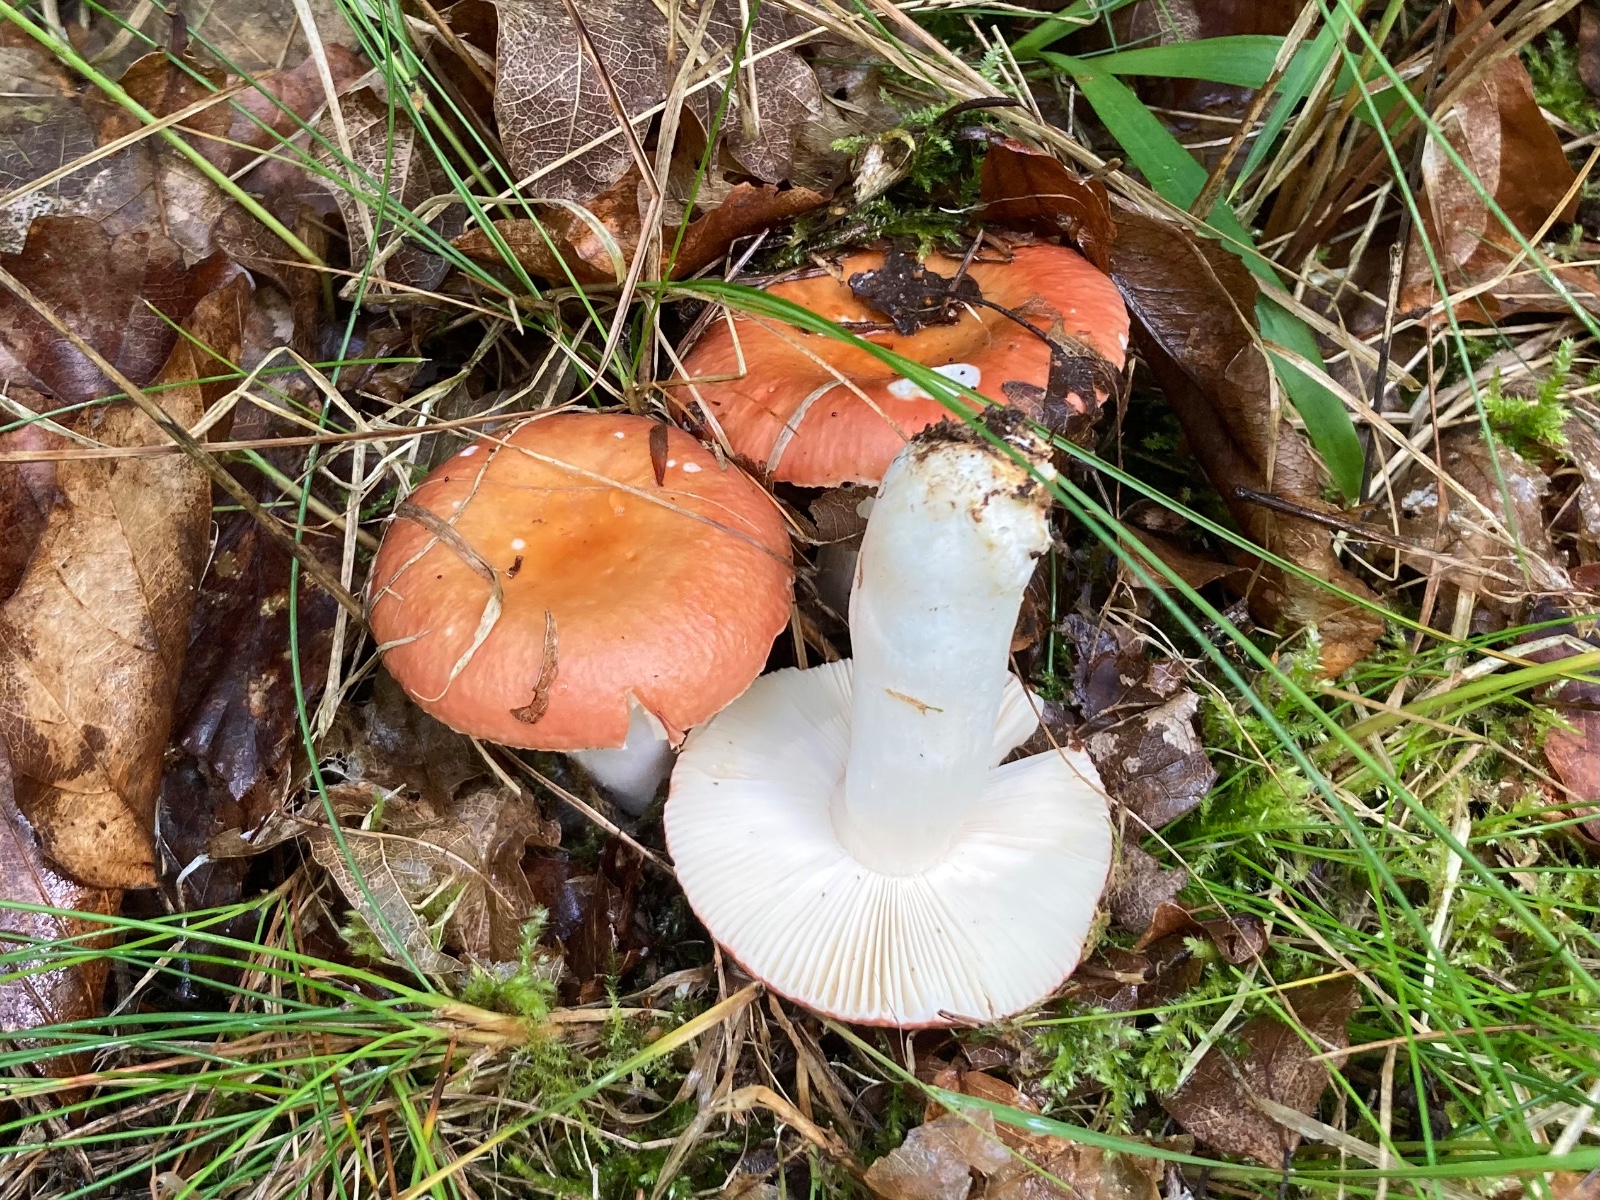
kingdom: Fungi
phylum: Basidiomycota
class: Agaricomycetes
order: Russulales
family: Russulaceae
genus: Russula
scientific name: Russula velenovskyi
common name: orangerød skørhat
